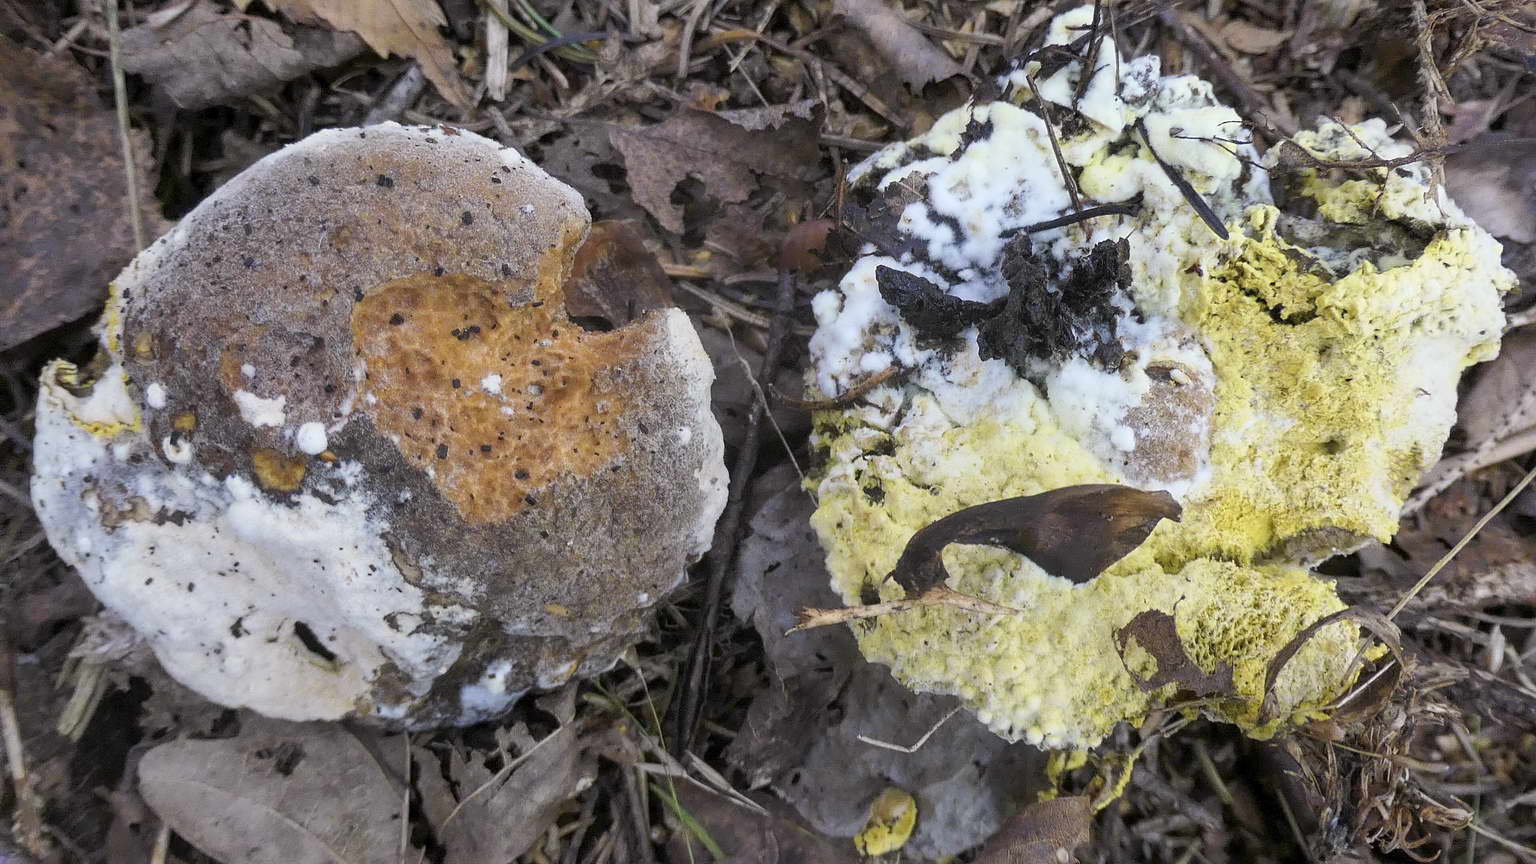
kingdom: Fungi
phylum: Ascomycota
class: Sordariomycetes
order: Hypocreales
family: Hypocreaceae
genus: Hypomyces
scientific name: Hypomyces microspermus
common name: dværgrørhat-snylteskorpe
